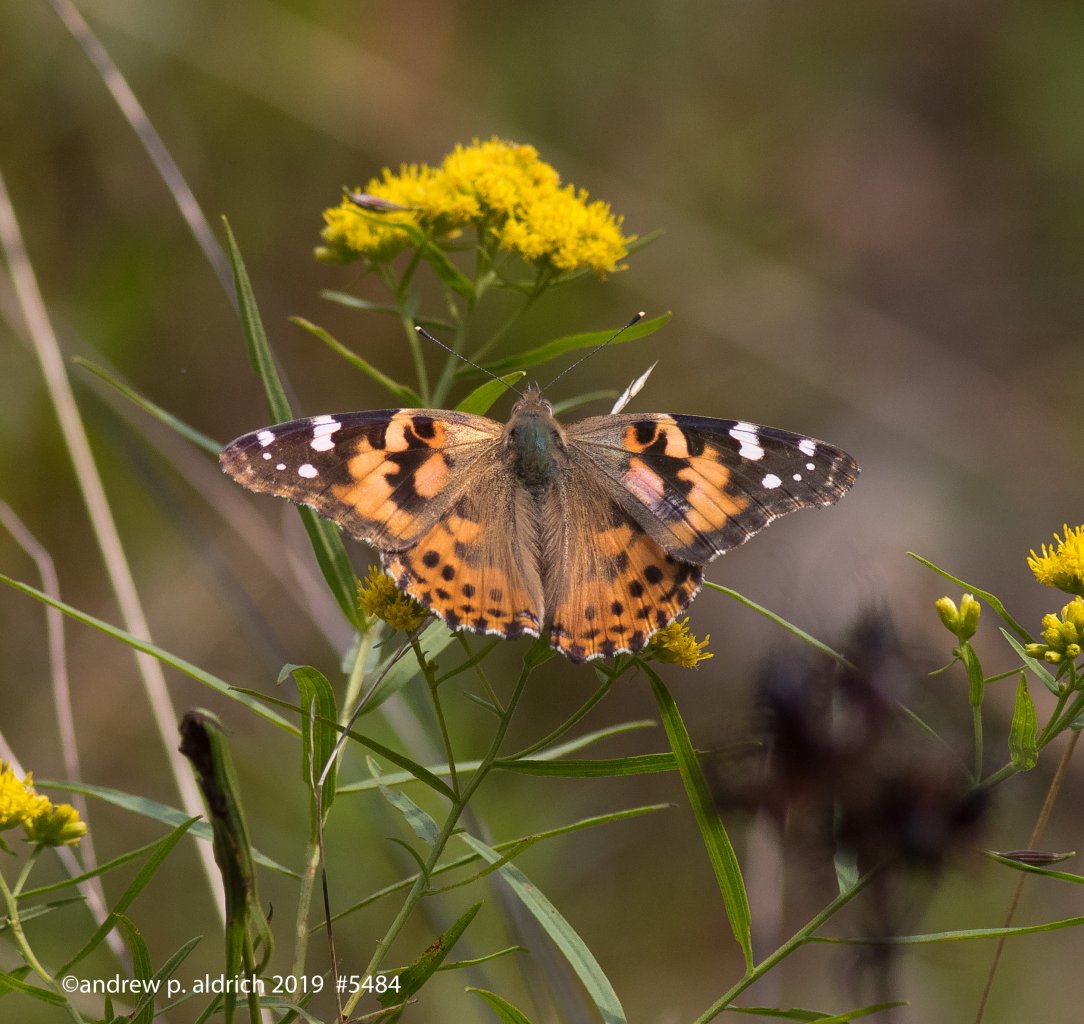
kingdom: Animalia
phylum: Arthropoda
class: Insecta
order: Lepidoptera
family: Nymphalidae
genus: Vanessa
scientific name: Vanessa cardui
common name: Painted Lady
